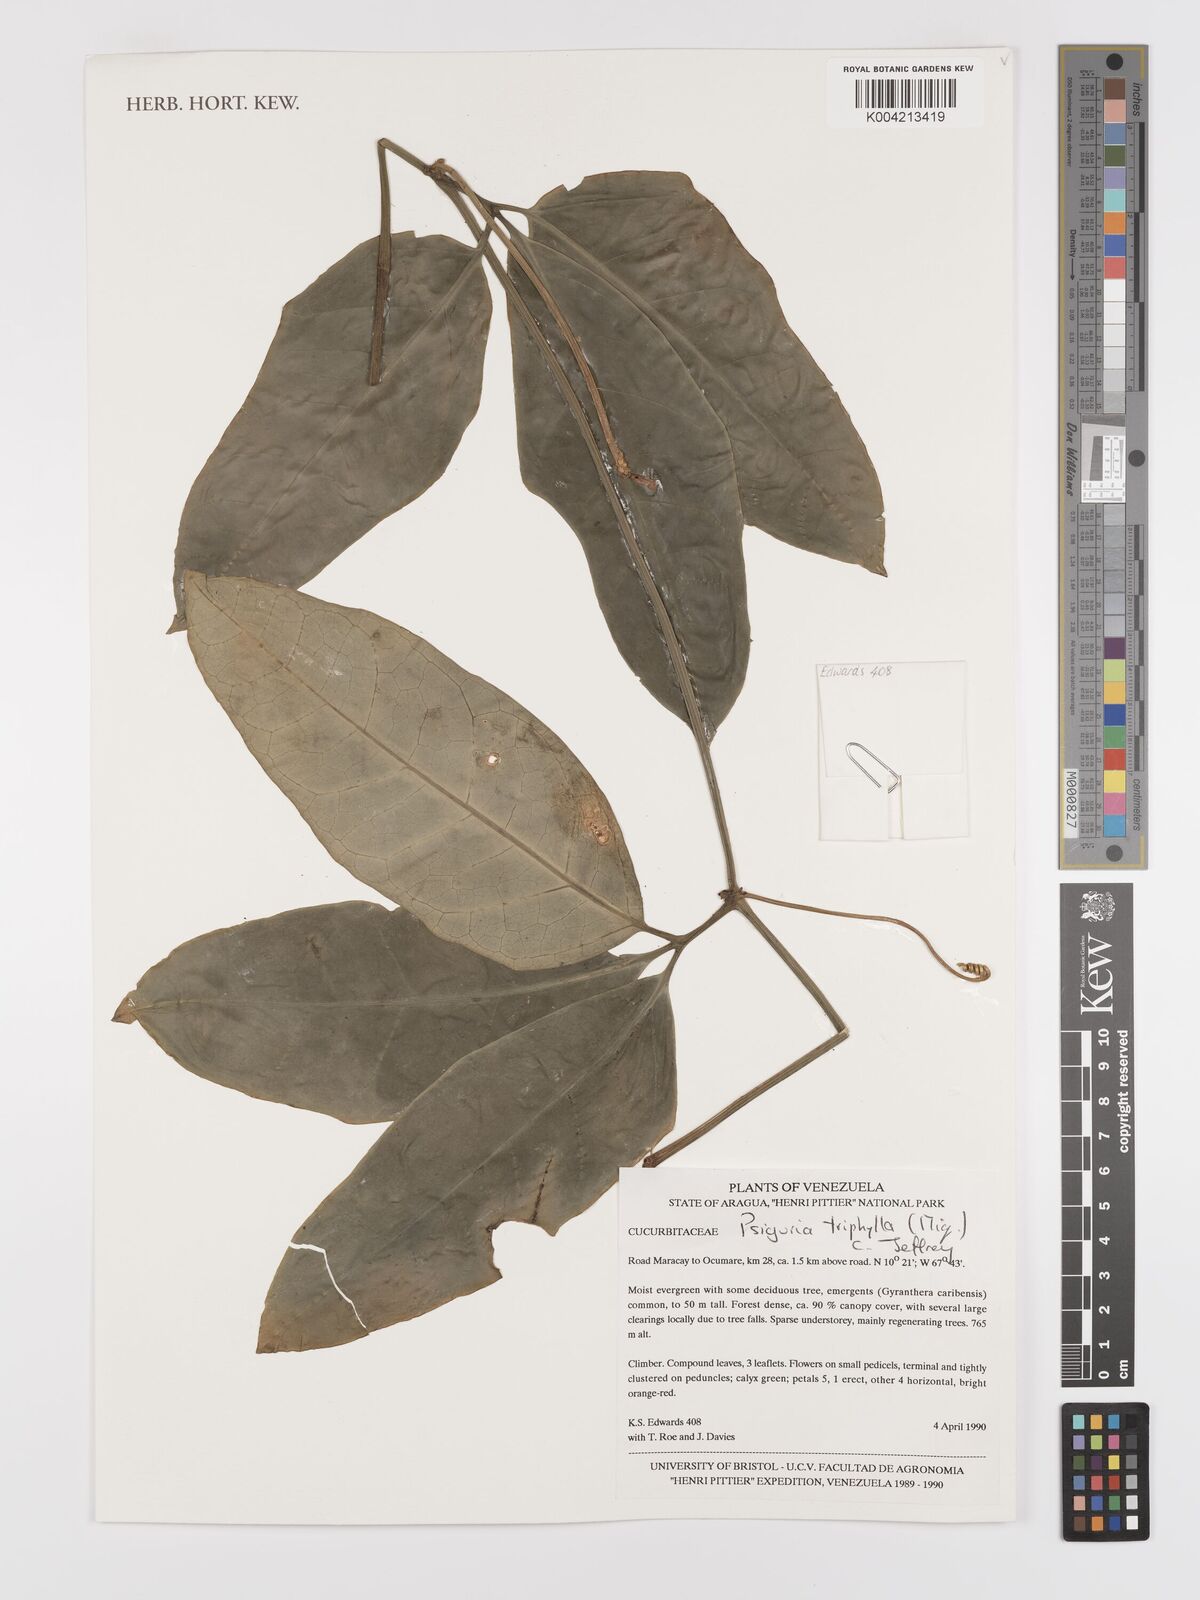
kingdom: Plantae
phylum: Tracheophyta
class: Magnoliopsida
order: Cucurbitales
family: Cucurbitaceae
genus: Psiguria
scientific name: Psiguria triphylla
